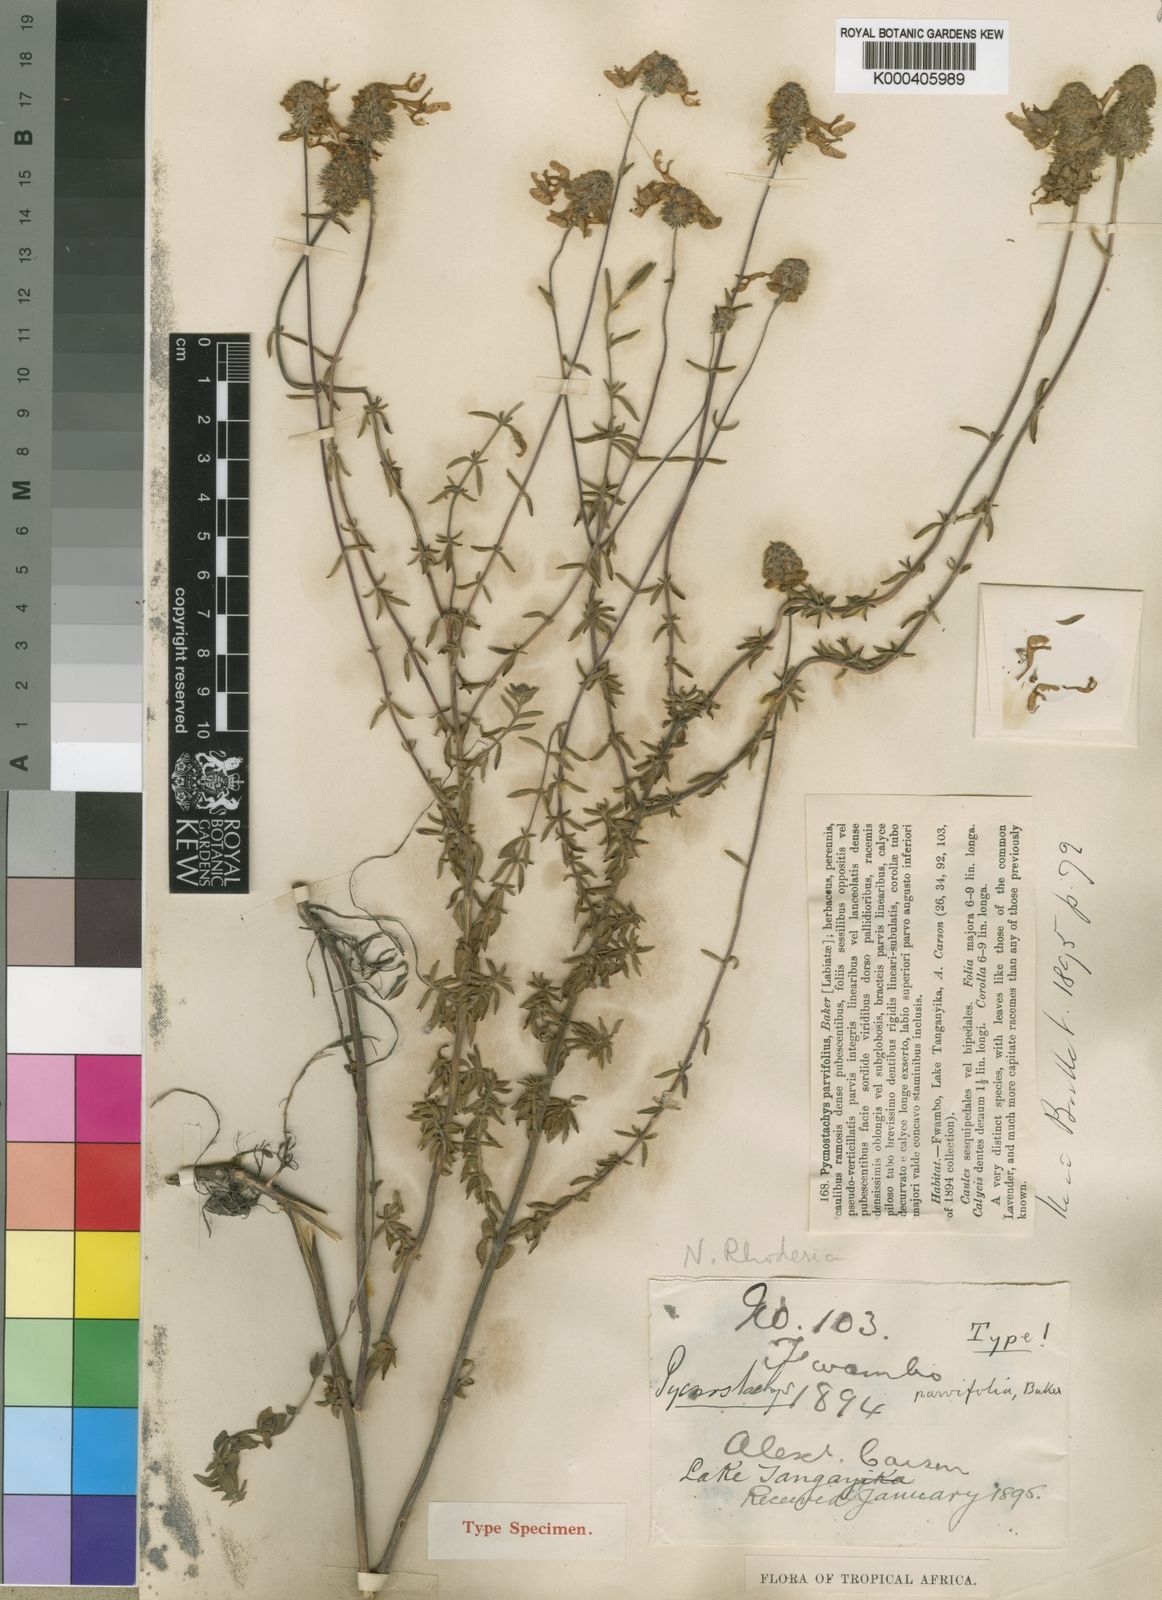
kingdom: Plantae
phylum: Tracheophyta
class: Magnoliopsida
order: Lamiales
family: Lamiaceae
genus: Coleus
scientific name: Coleus Pycnostachys parvifolia
